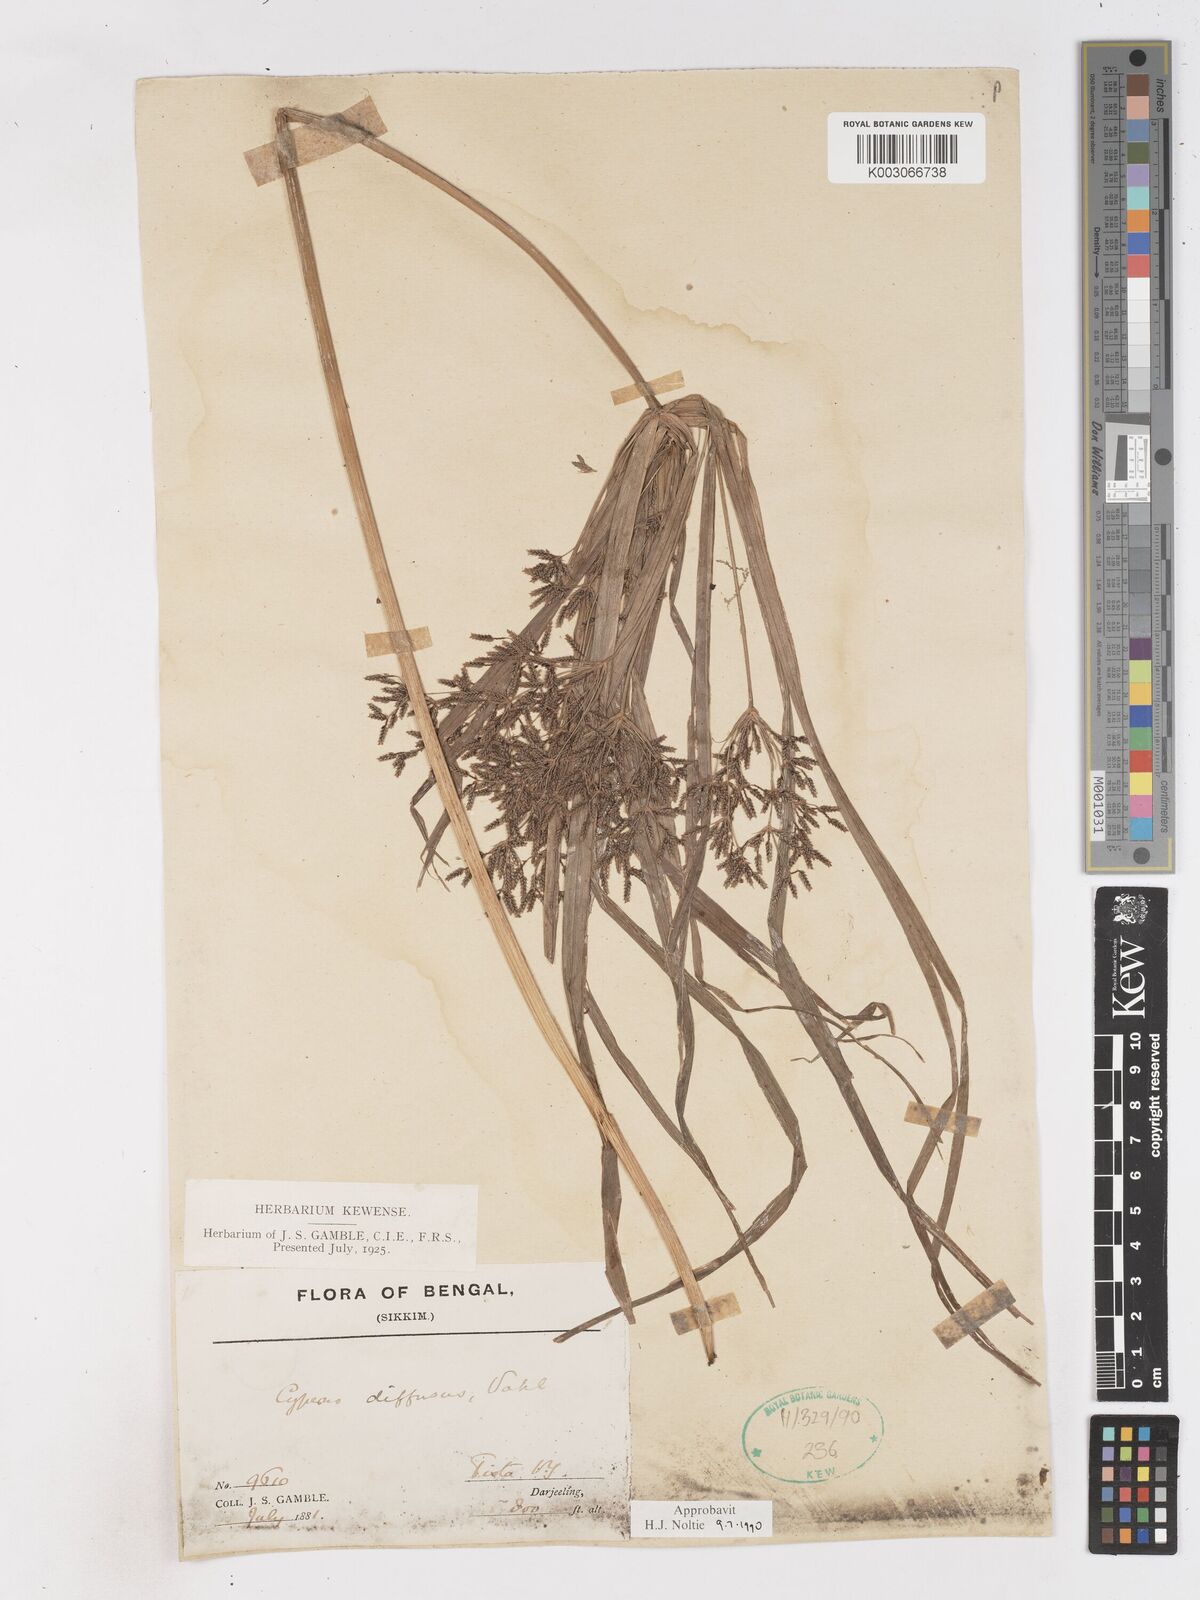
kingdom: Plantae
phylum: Tracheophyta
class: Liliopsida
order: Poales
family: Cyperaceae
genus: Cyperus
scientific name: Cyperus diffusus
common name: Dwarf umbrella grass
